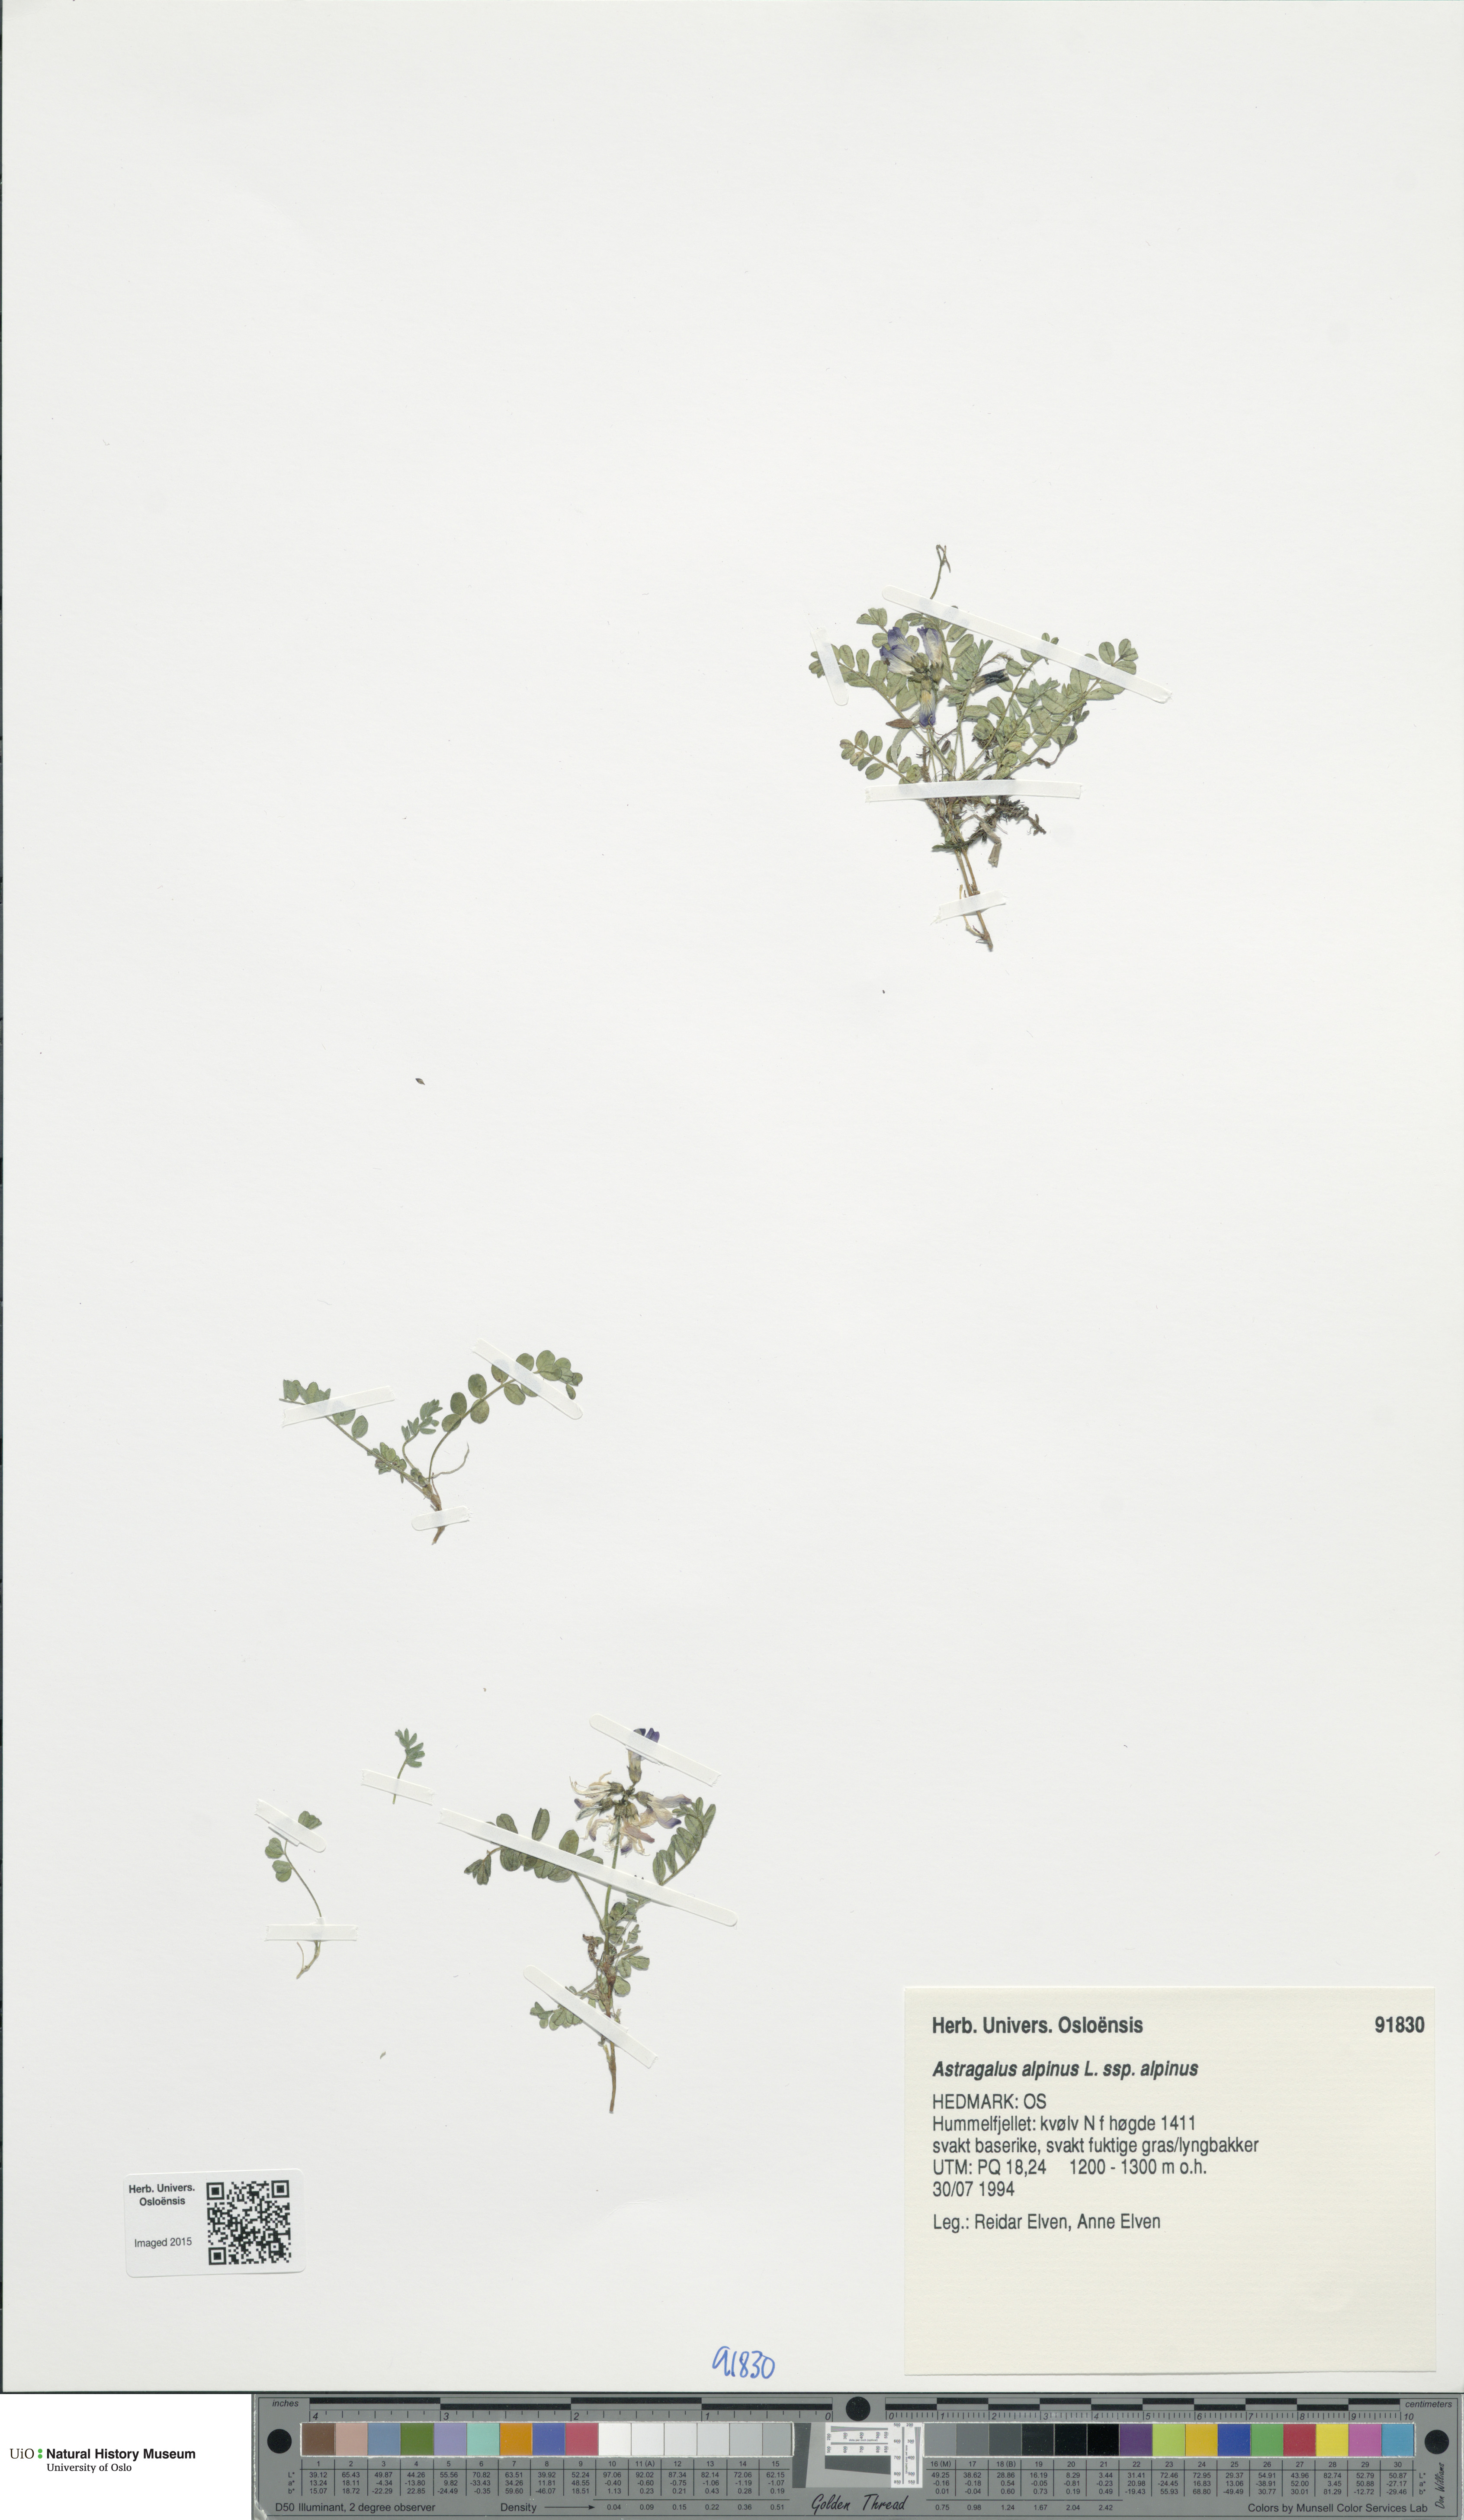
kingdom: Plantae
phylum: Tracheophyta
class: Magnoliopsida
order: Fabales
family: Fabaceae
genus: Astragalus
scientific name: Astragalus alpinus
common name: Alpine milk-vetch
